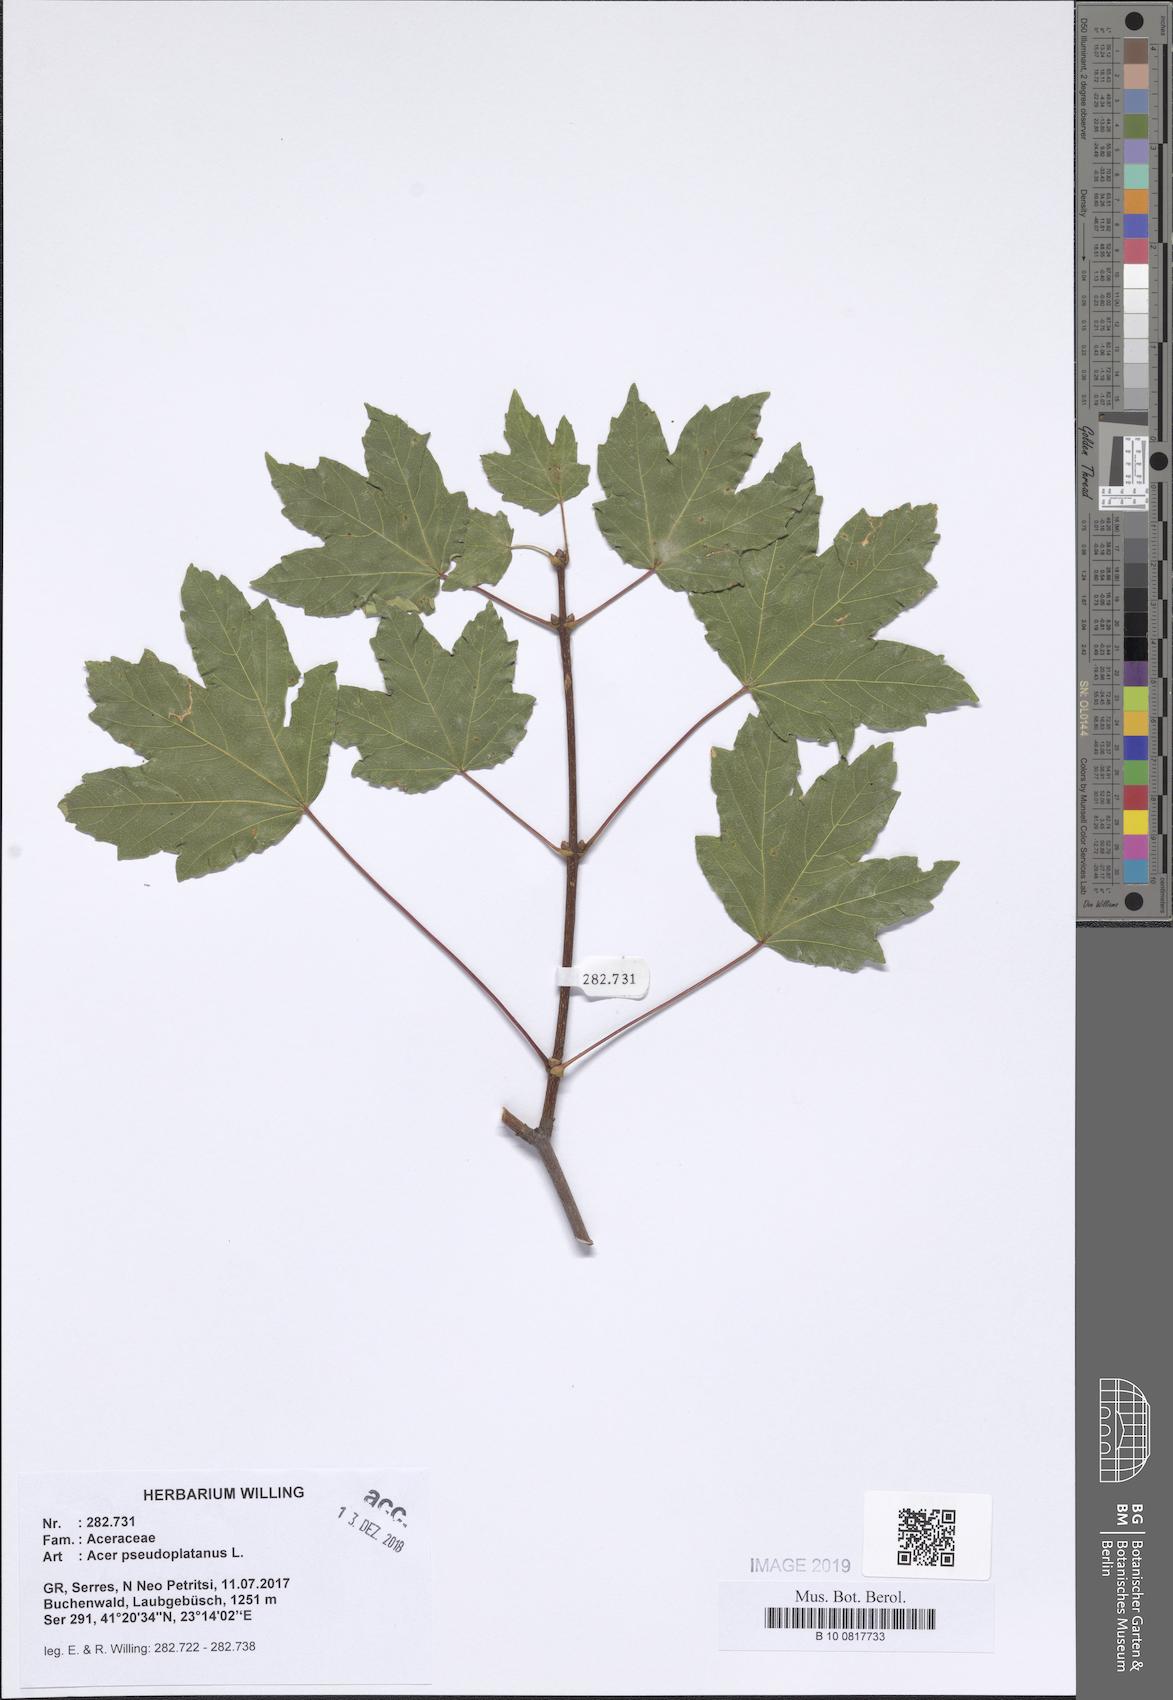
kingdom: Plantae
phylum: Tracheophyta
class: Magnoliopsida
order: Sapindales
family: Sapindaceae
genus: Acer
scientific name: Acer pseudoplatanus
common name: Sycamore
